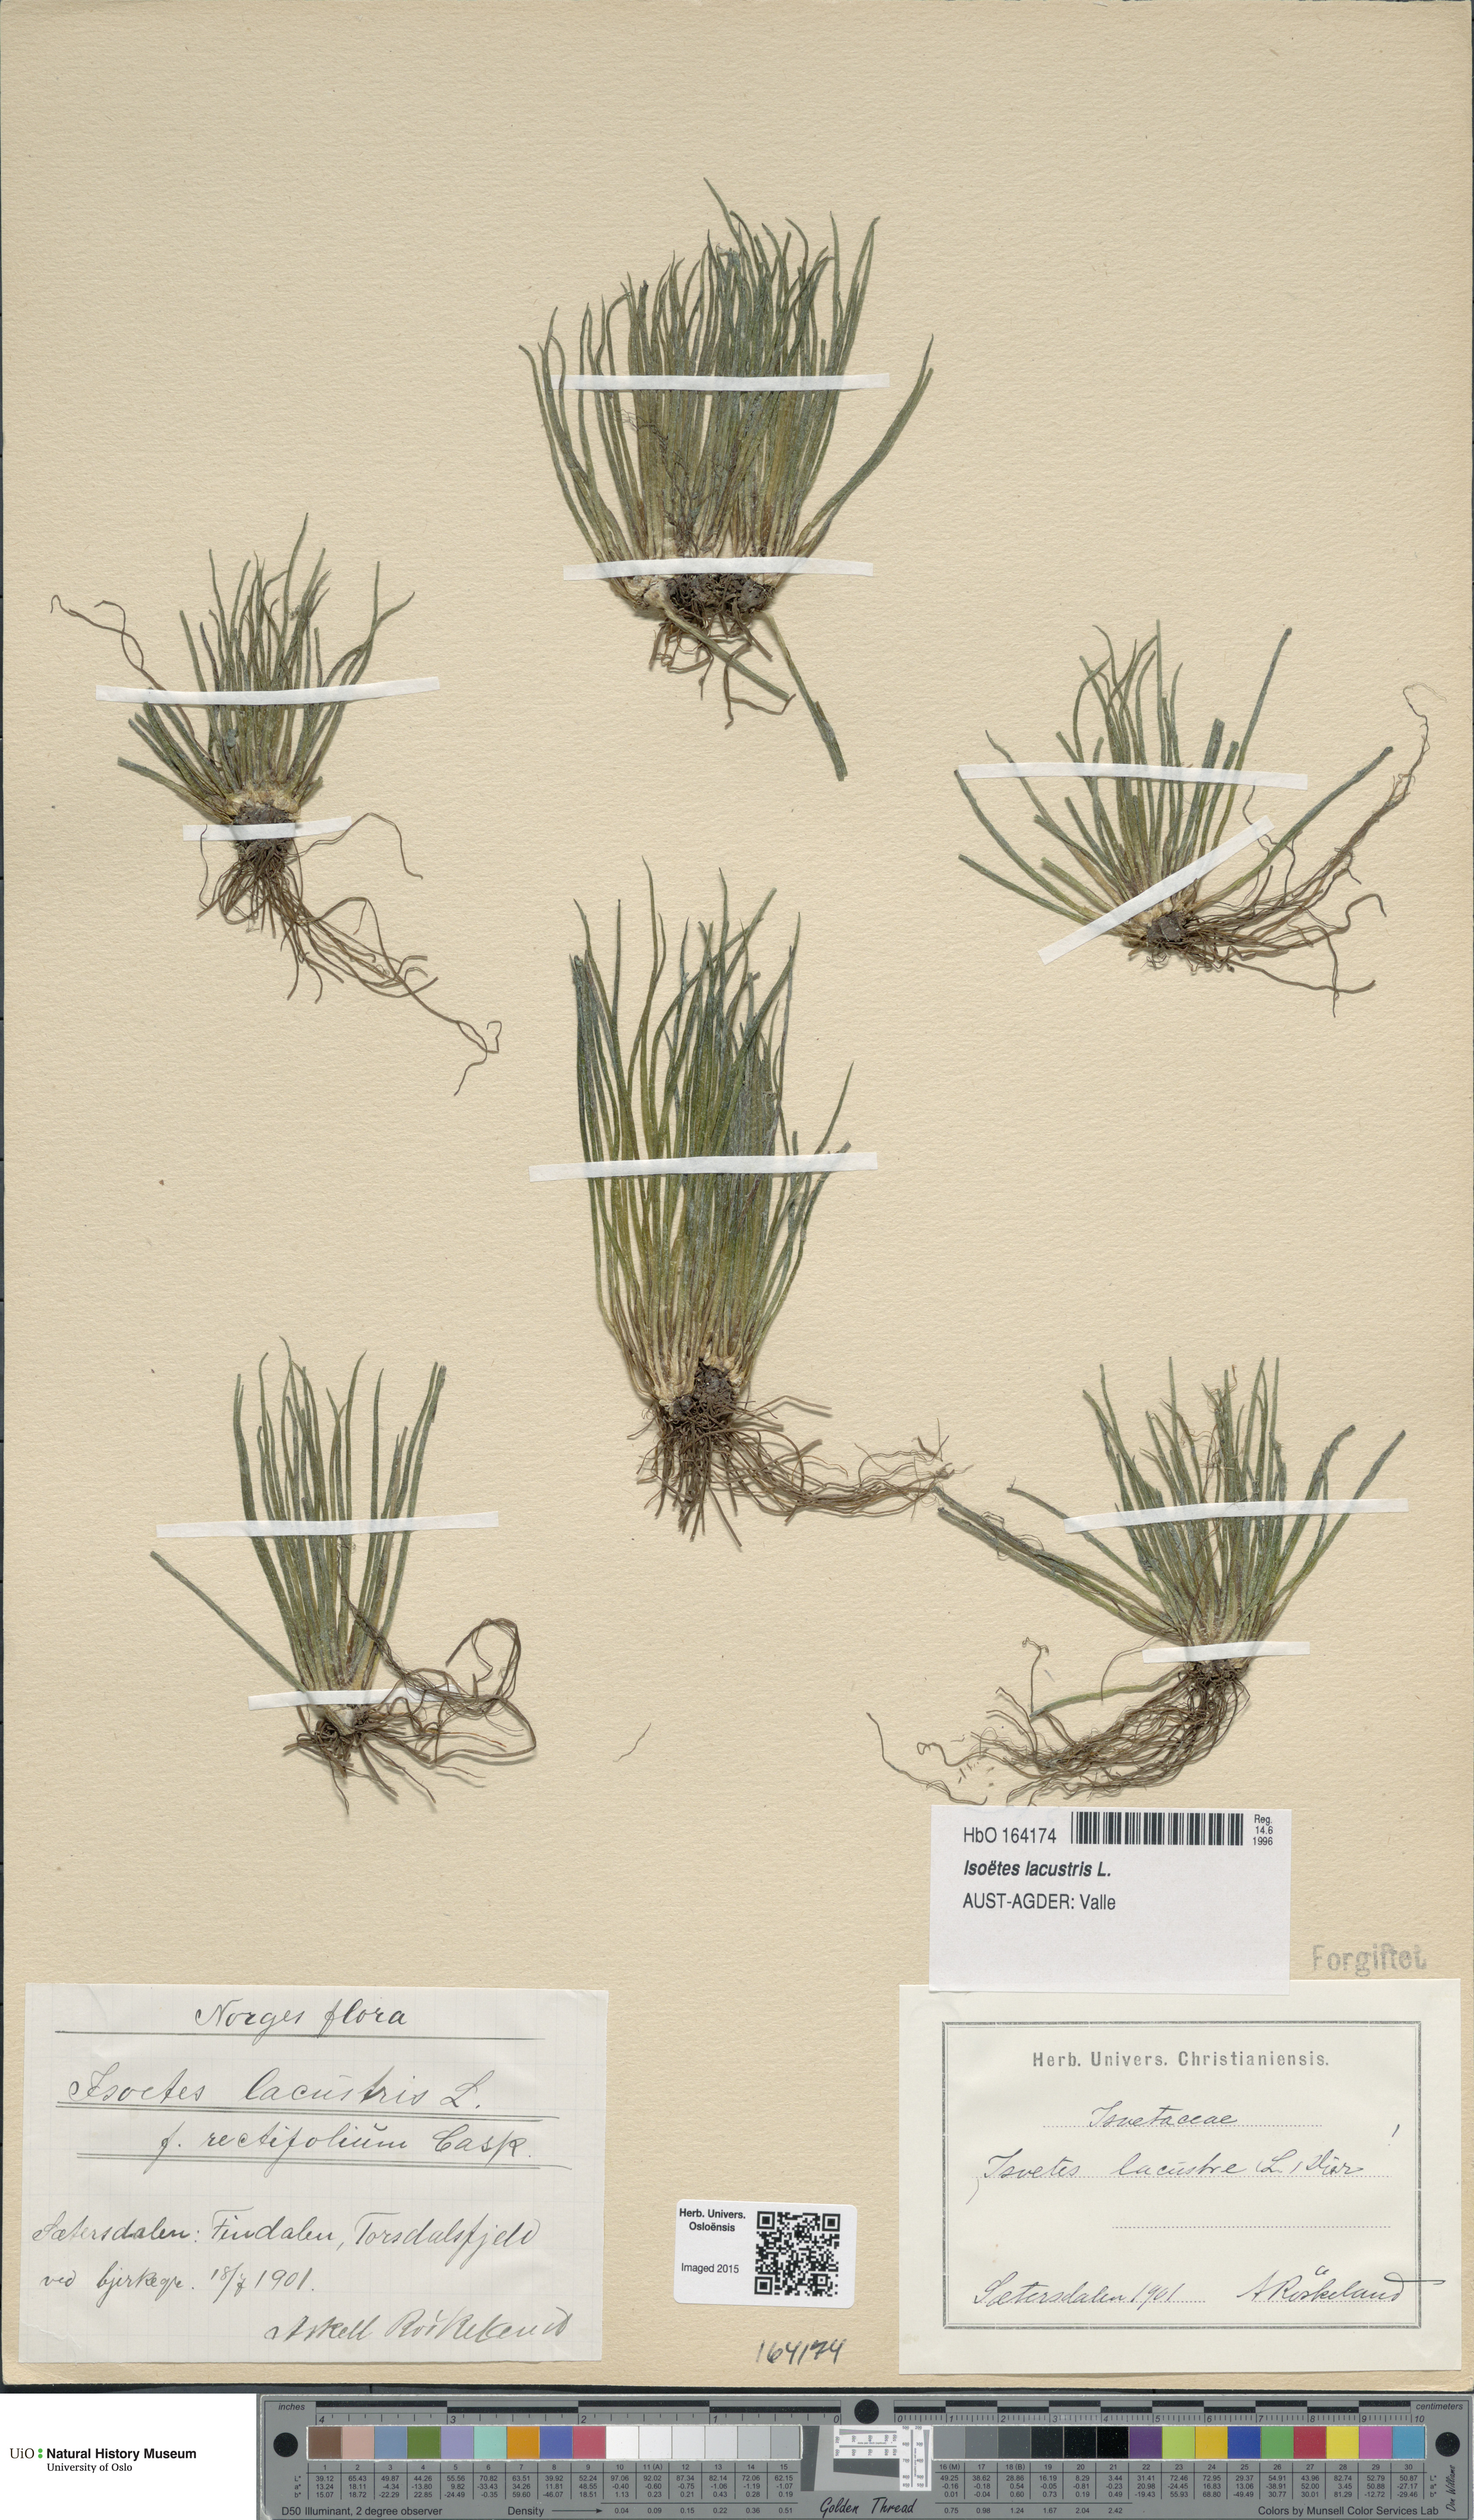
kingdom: Plantae
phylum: Tracheophyta
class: Lycopodiopsida
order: Isoetales
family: Isoetaceae
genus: Isoetes
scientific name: Isoetes lacustris
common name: Common quillwort
